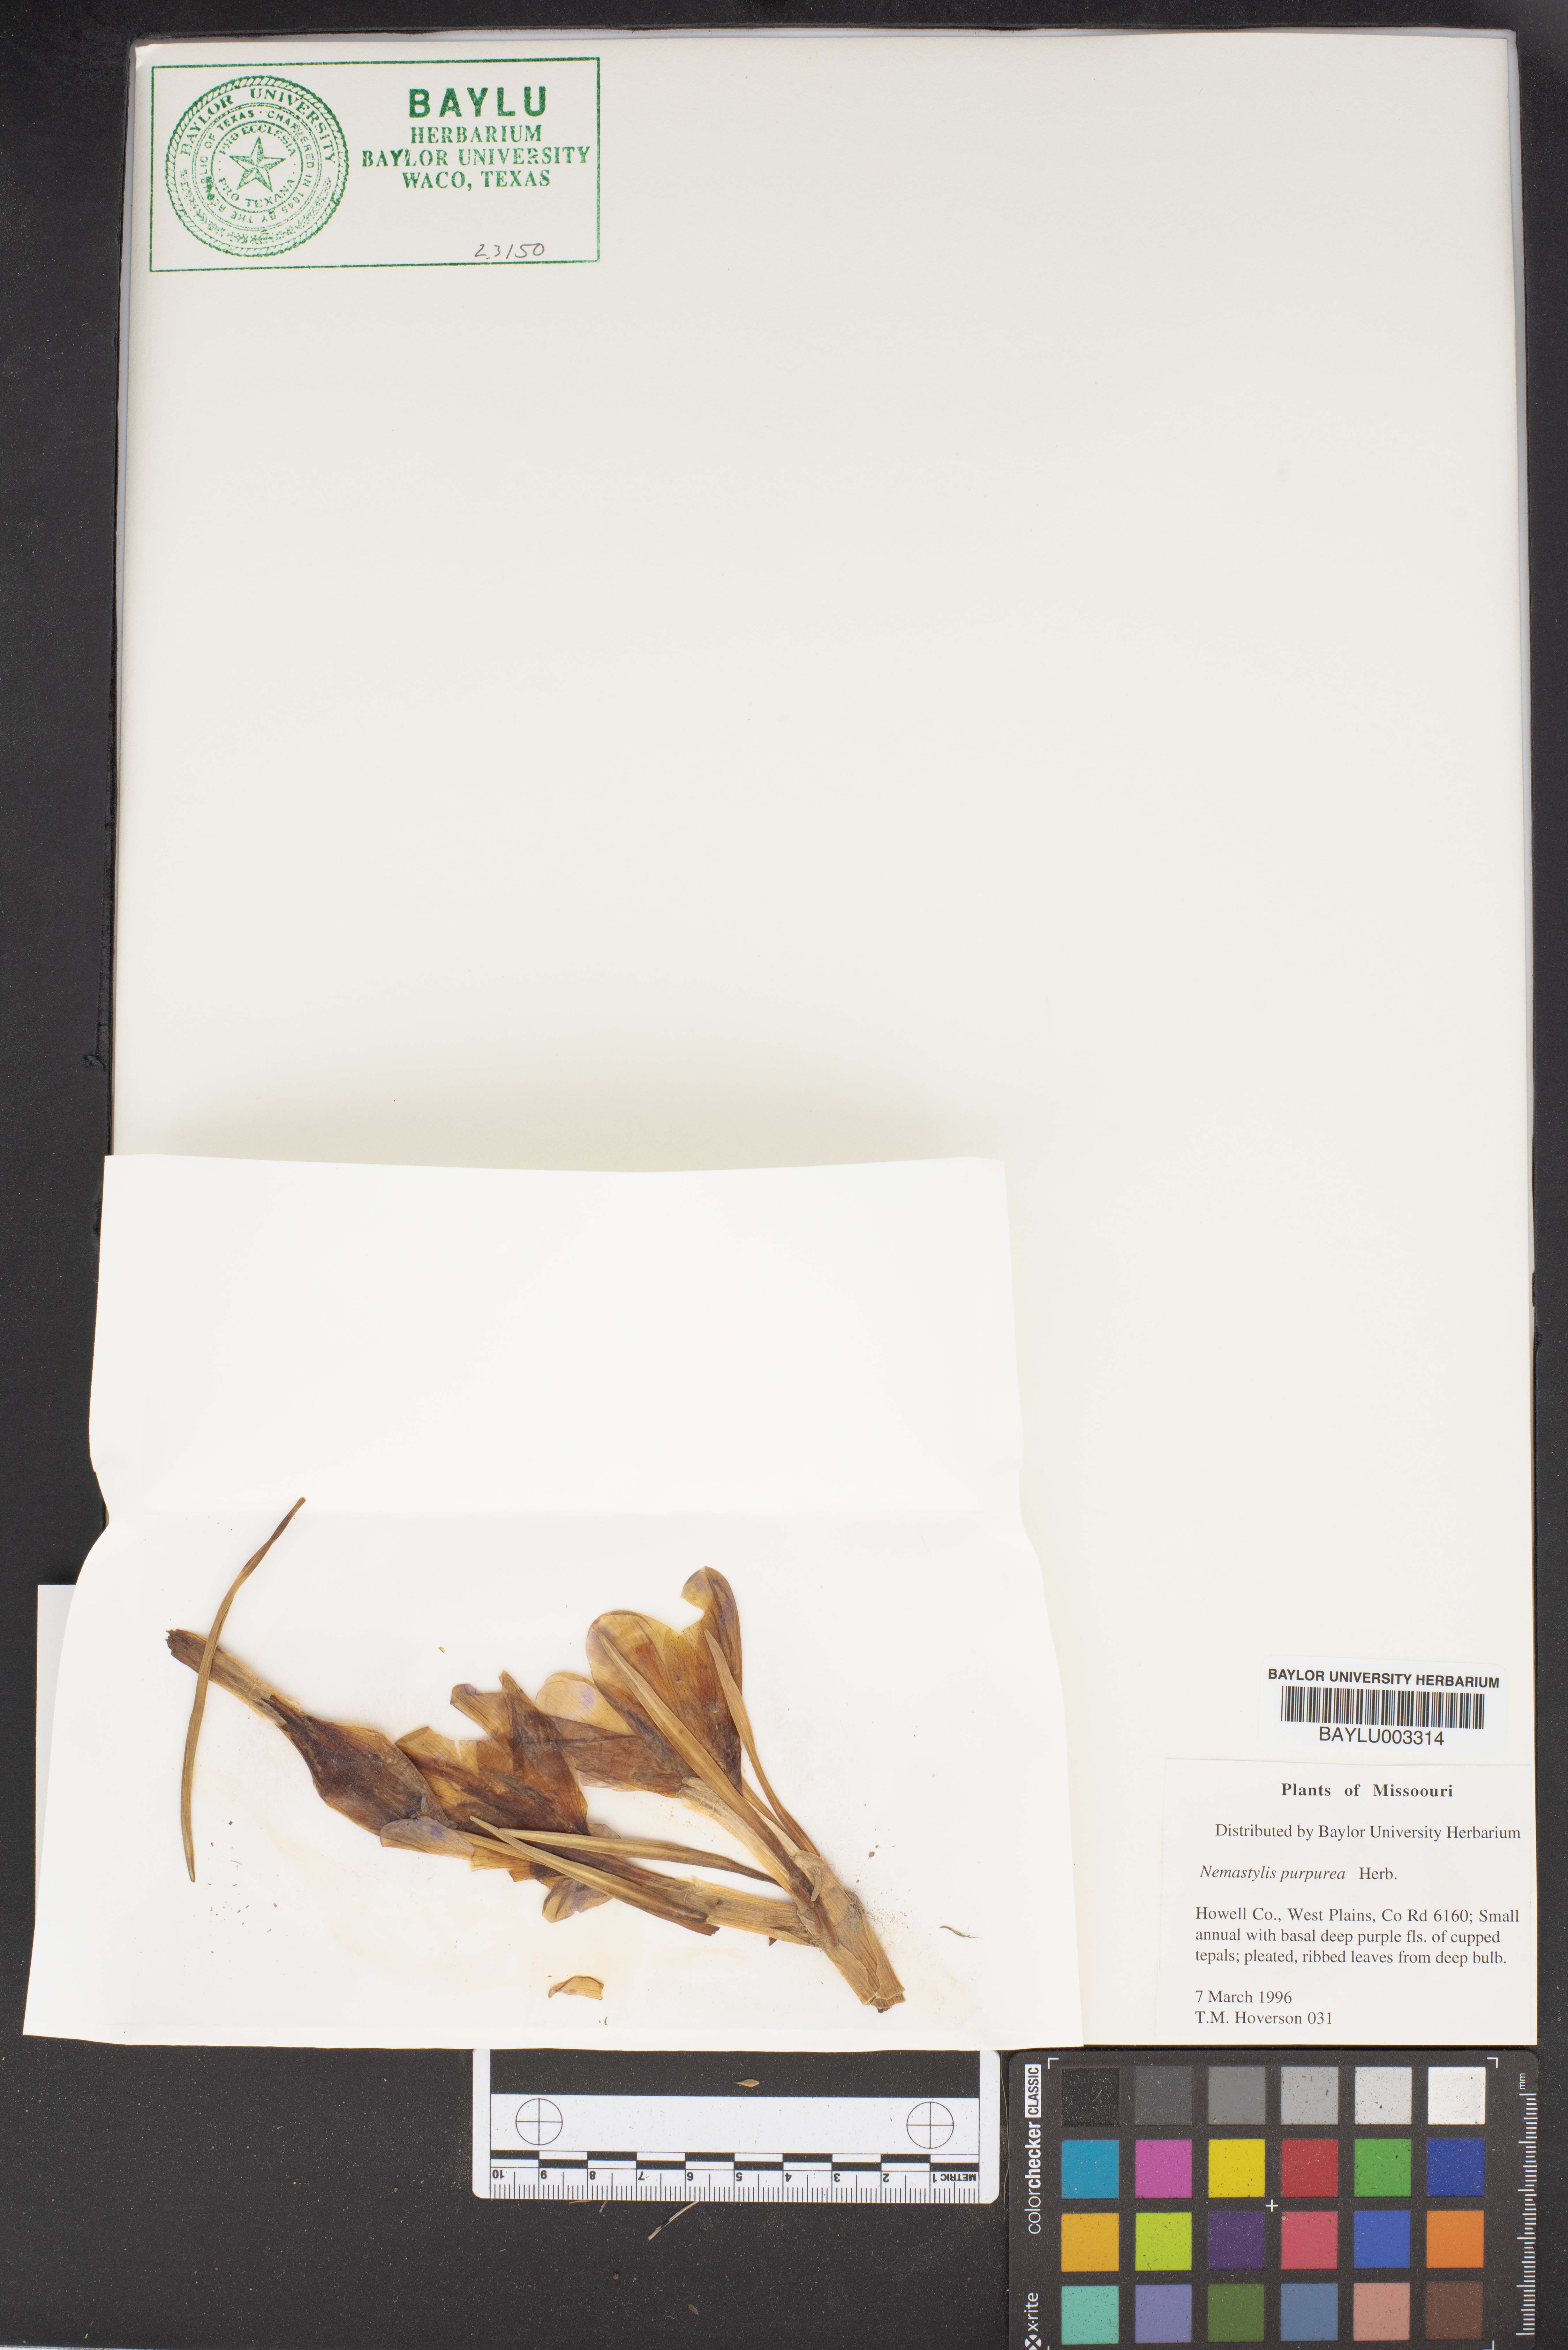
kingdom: Plantae
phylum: Tracheophyta
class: Liliopsida
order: Asparagales
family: Iridaceae
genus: Alophia
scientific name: Alophia drummondii
